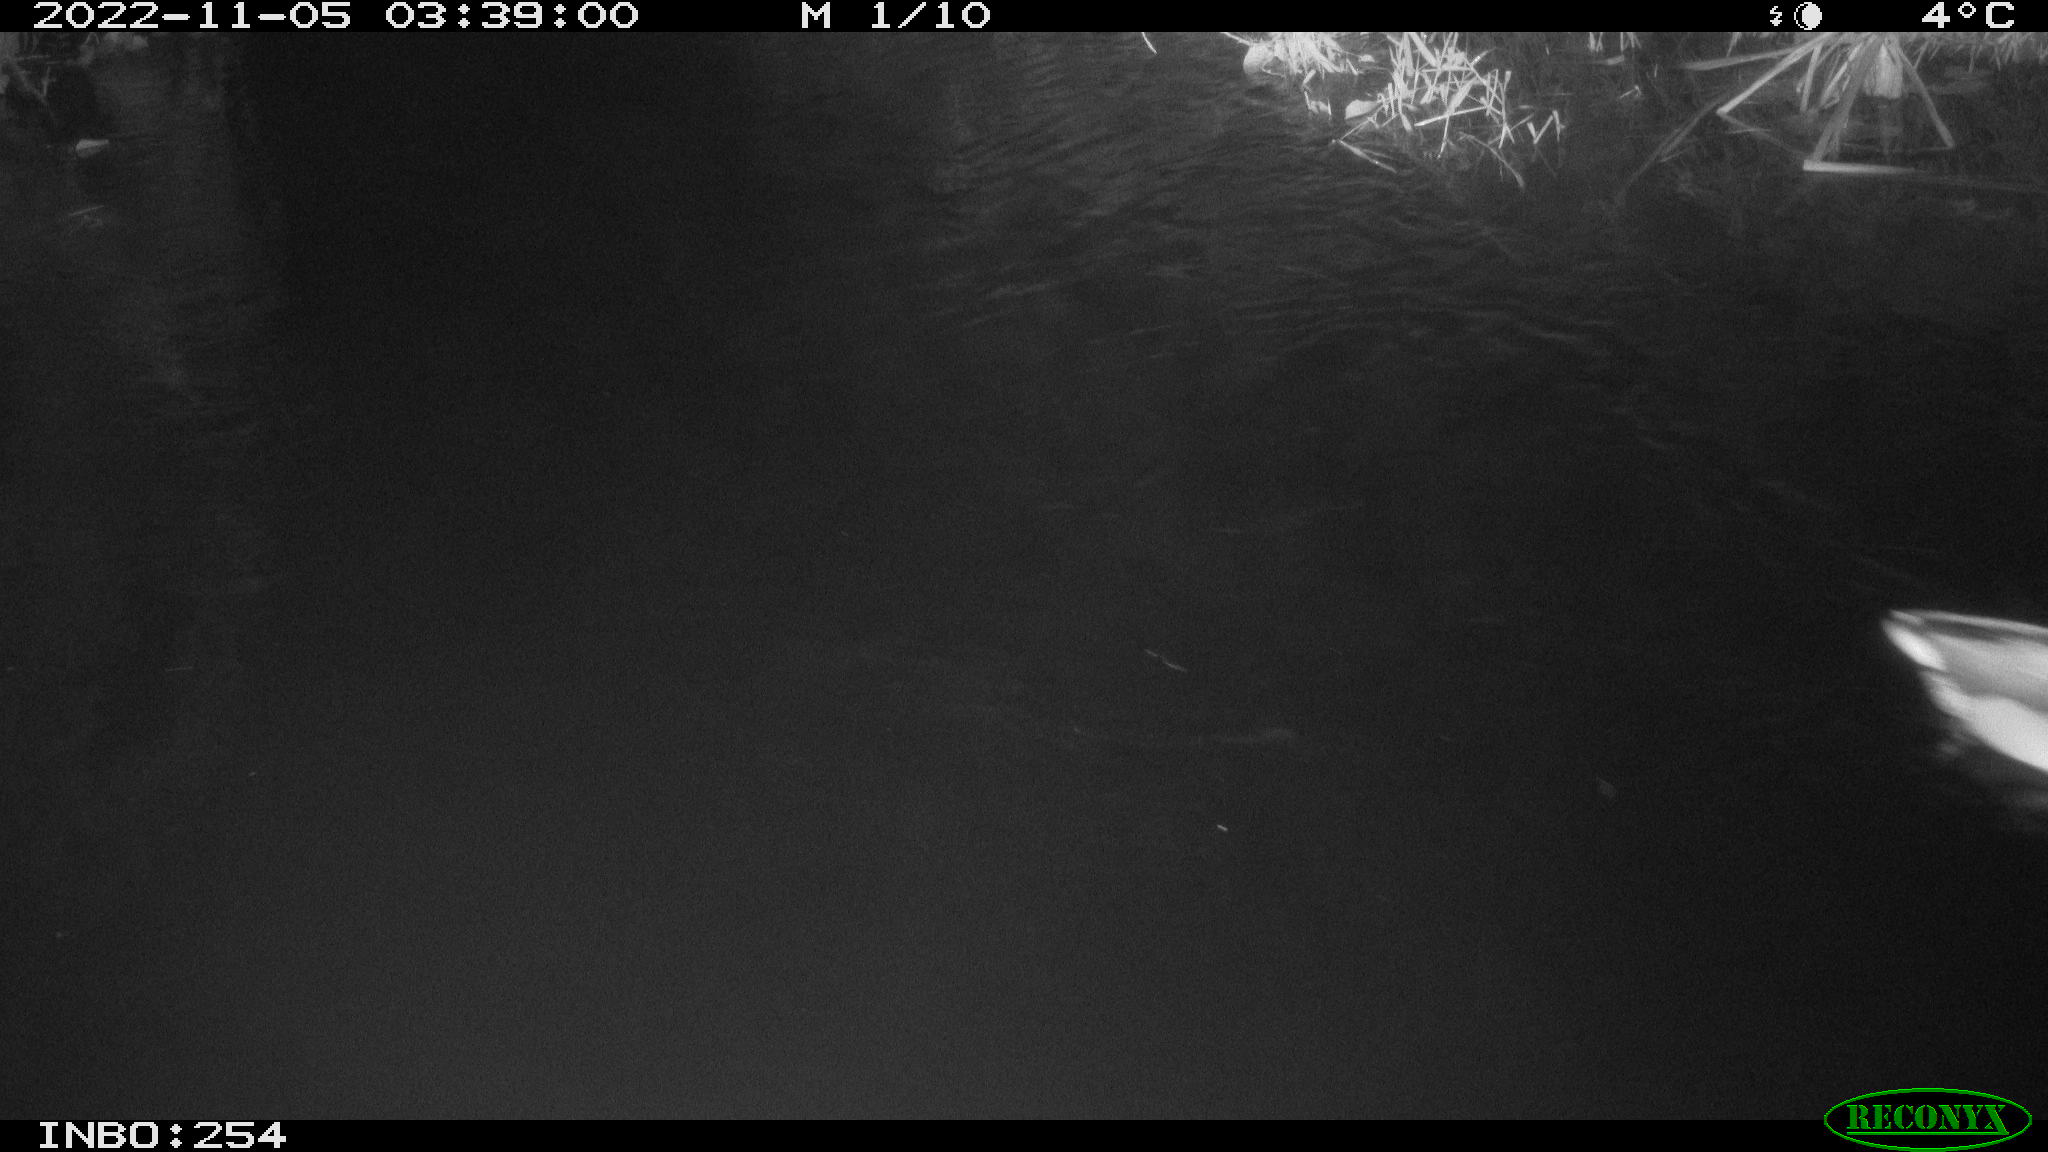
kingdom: Animalia
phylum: Chordata
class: Aves
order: Anseriformes
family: Anatidae
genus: Anas
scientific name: Anas
